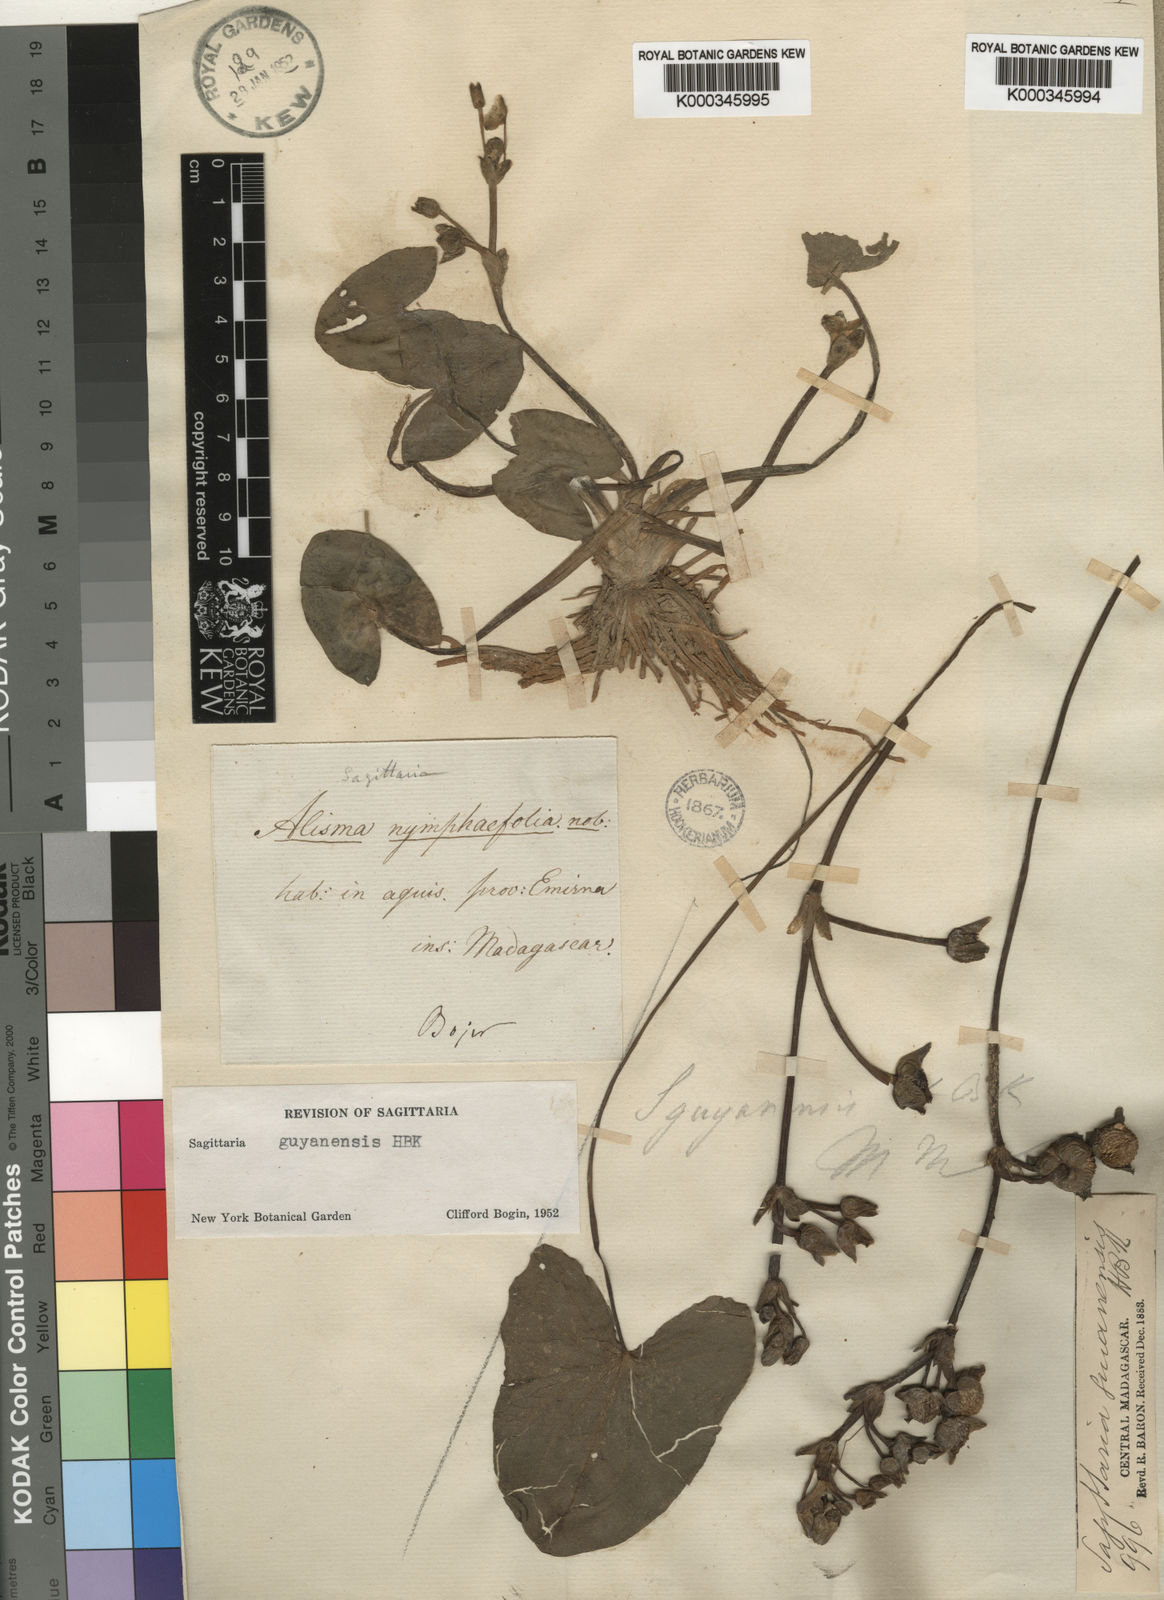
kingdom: Plantae
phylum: Tracheophyta
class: Liliopsida
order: Alismatales
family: Alismataceae
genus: Sagittaria
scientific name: Sagittaria
